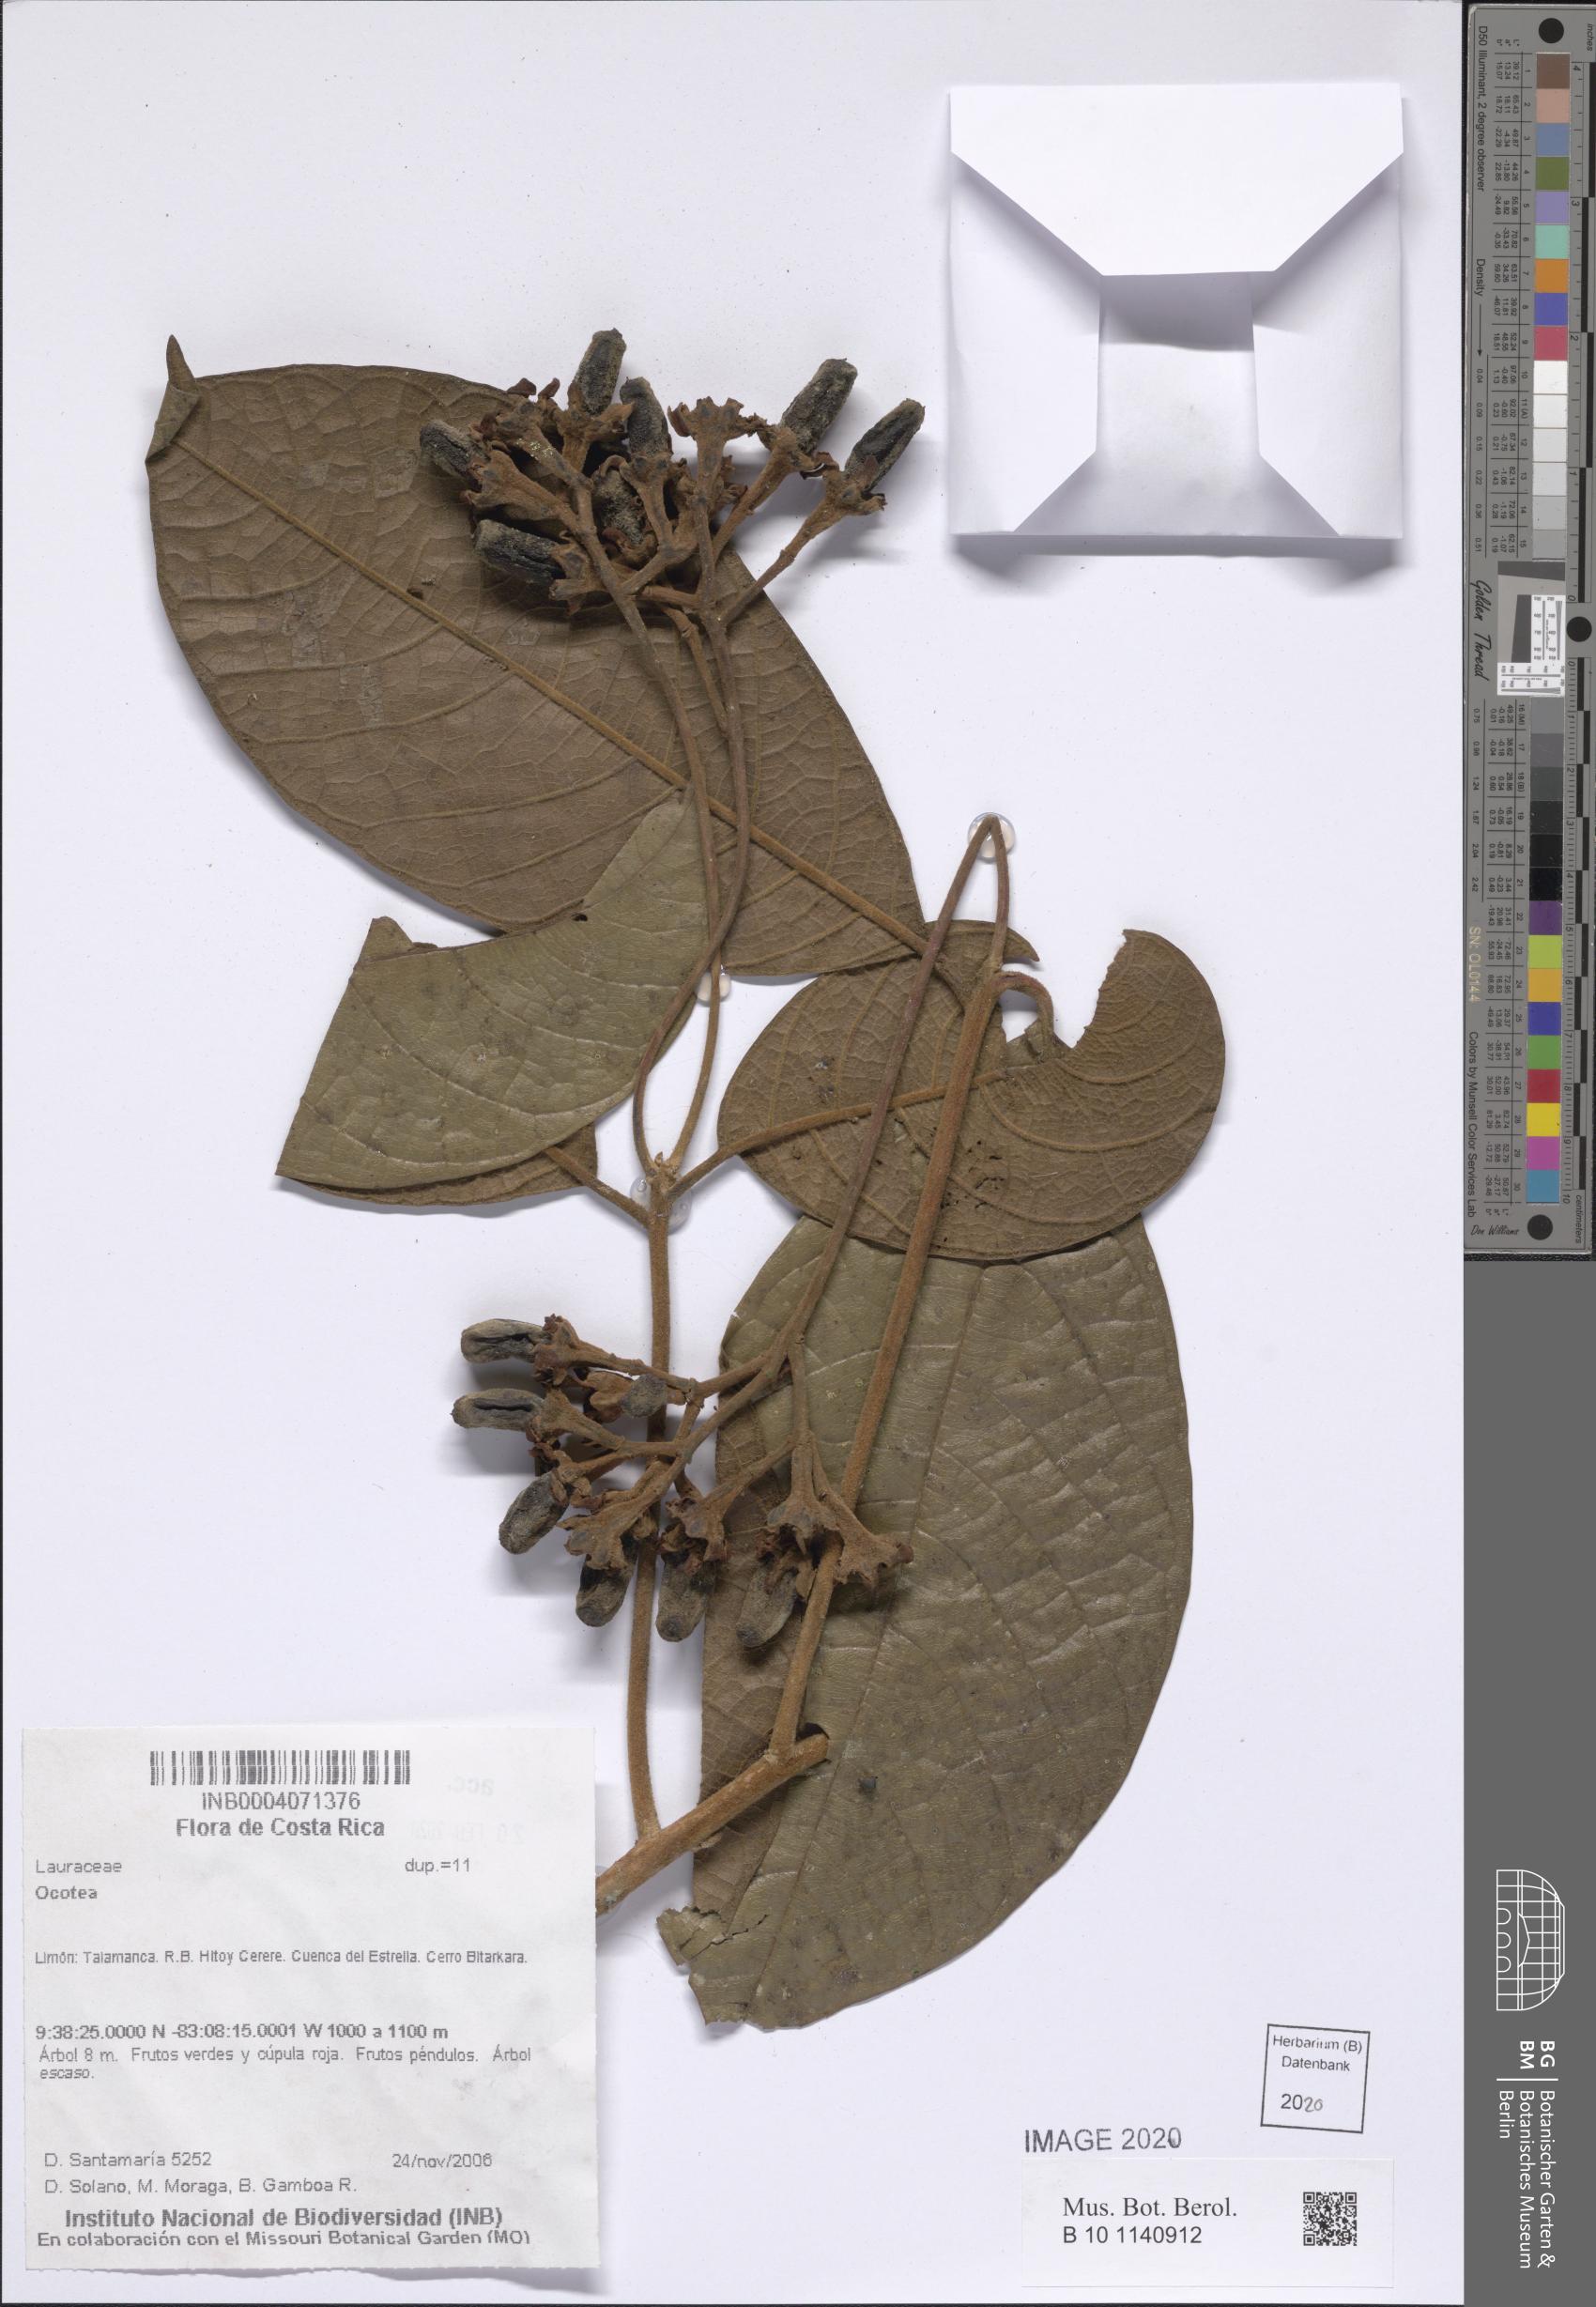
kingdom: Plantae
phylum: Tracheophyta
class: Magnoliopsida
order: Laurales
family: Lauraceae
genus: Ocotea
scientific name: Ocotea
